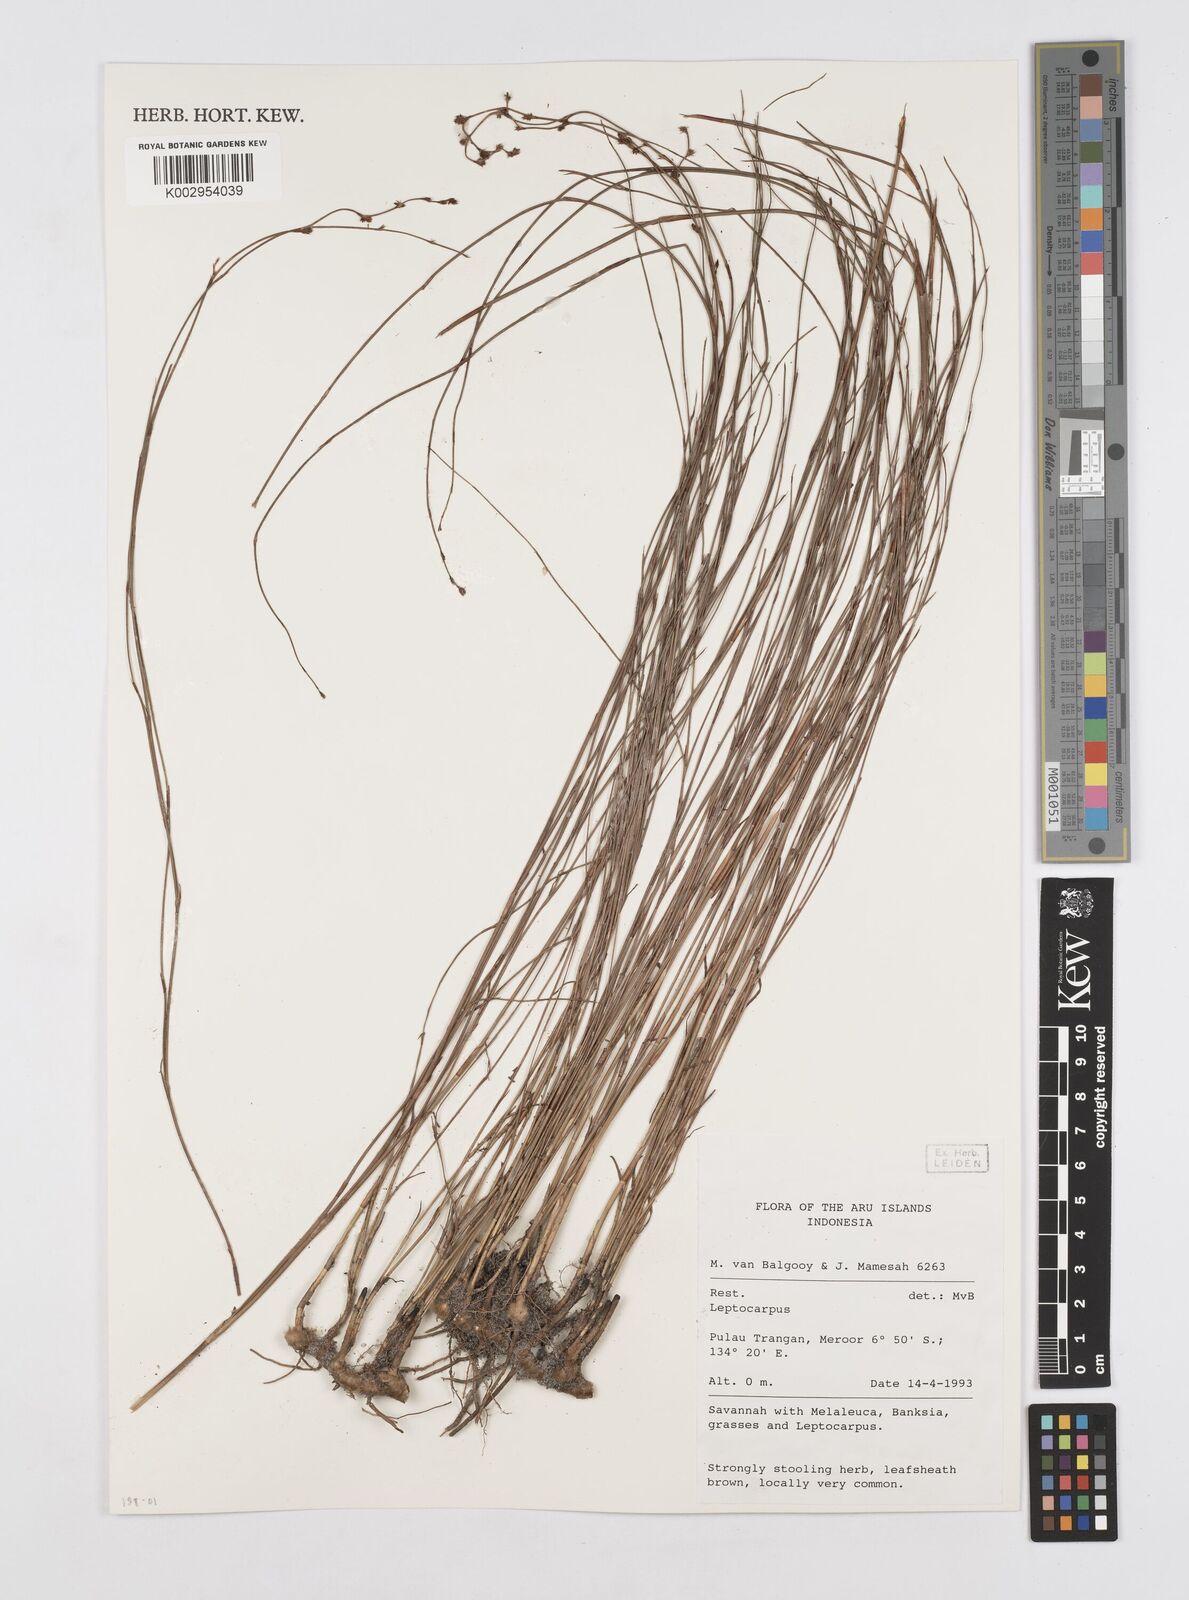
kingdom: Plantae
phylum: Tracheophyta
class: Liliopsida
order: Poales
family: Restionaceae
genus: Dapsilanthus
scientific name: Dapsilanthus
